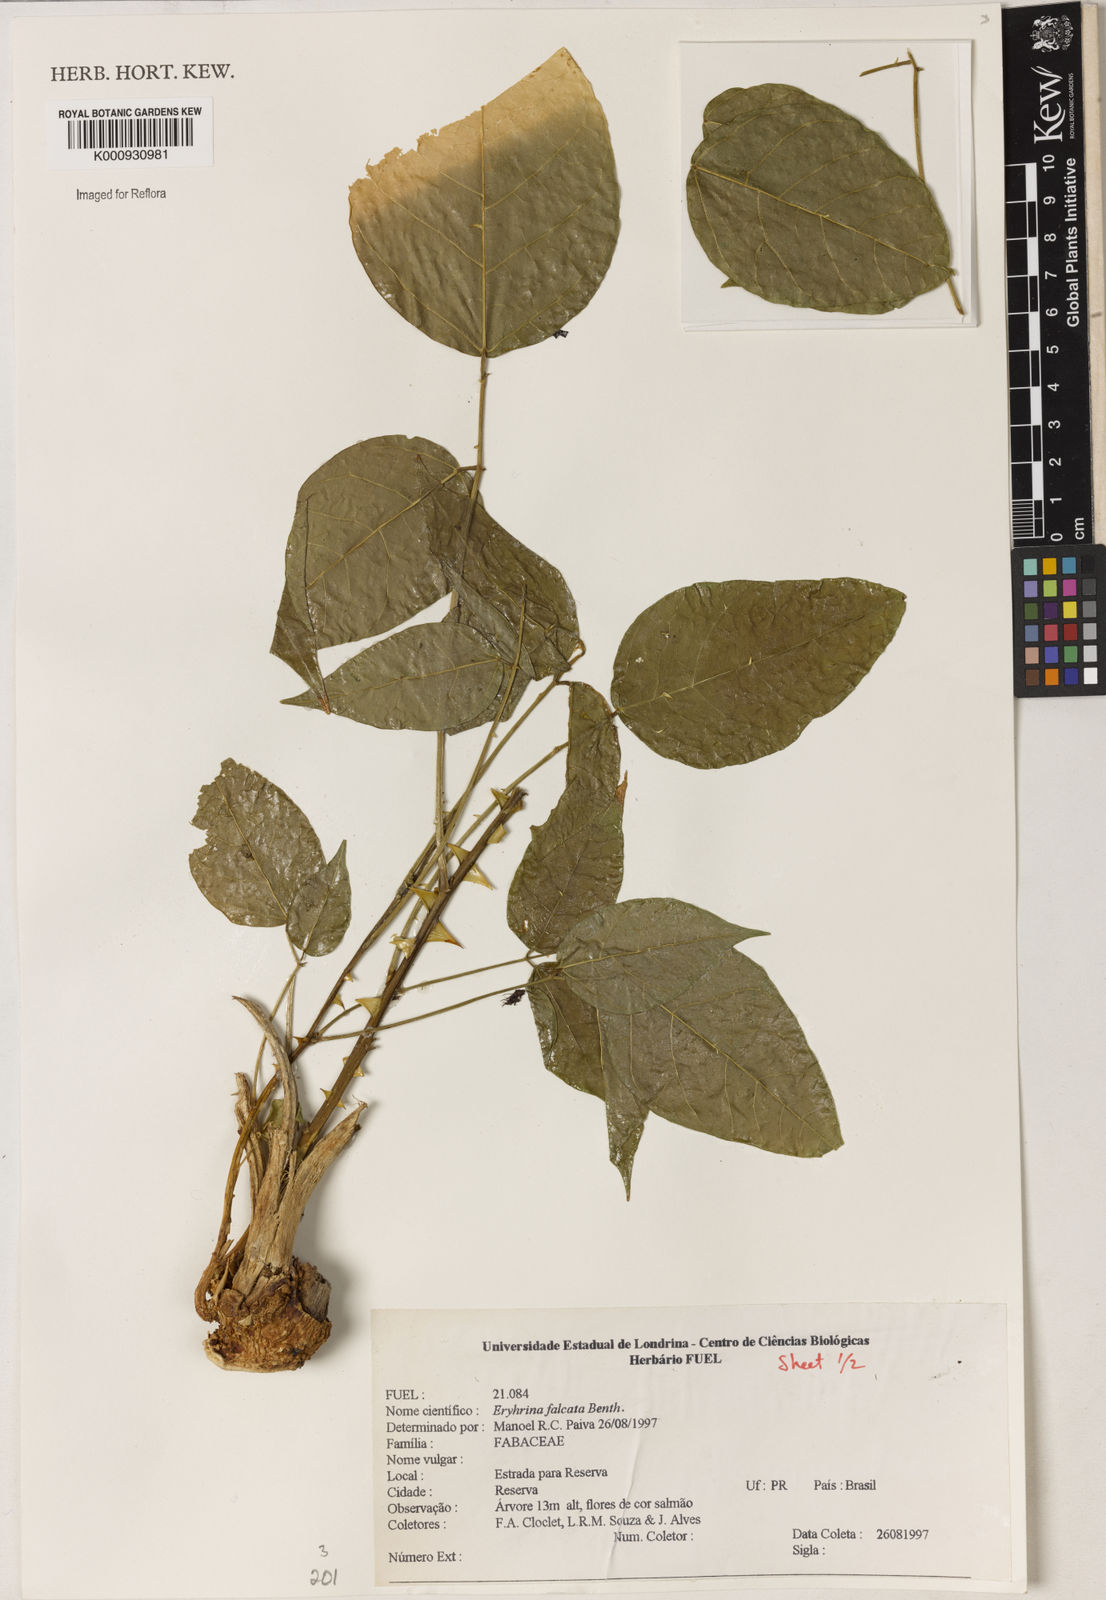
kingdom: Plantae
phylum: Tracheophyta
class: Magnoliopsida
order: Fabales
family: Fabaceae
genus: Erythrina
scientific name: Erythrina falcata
